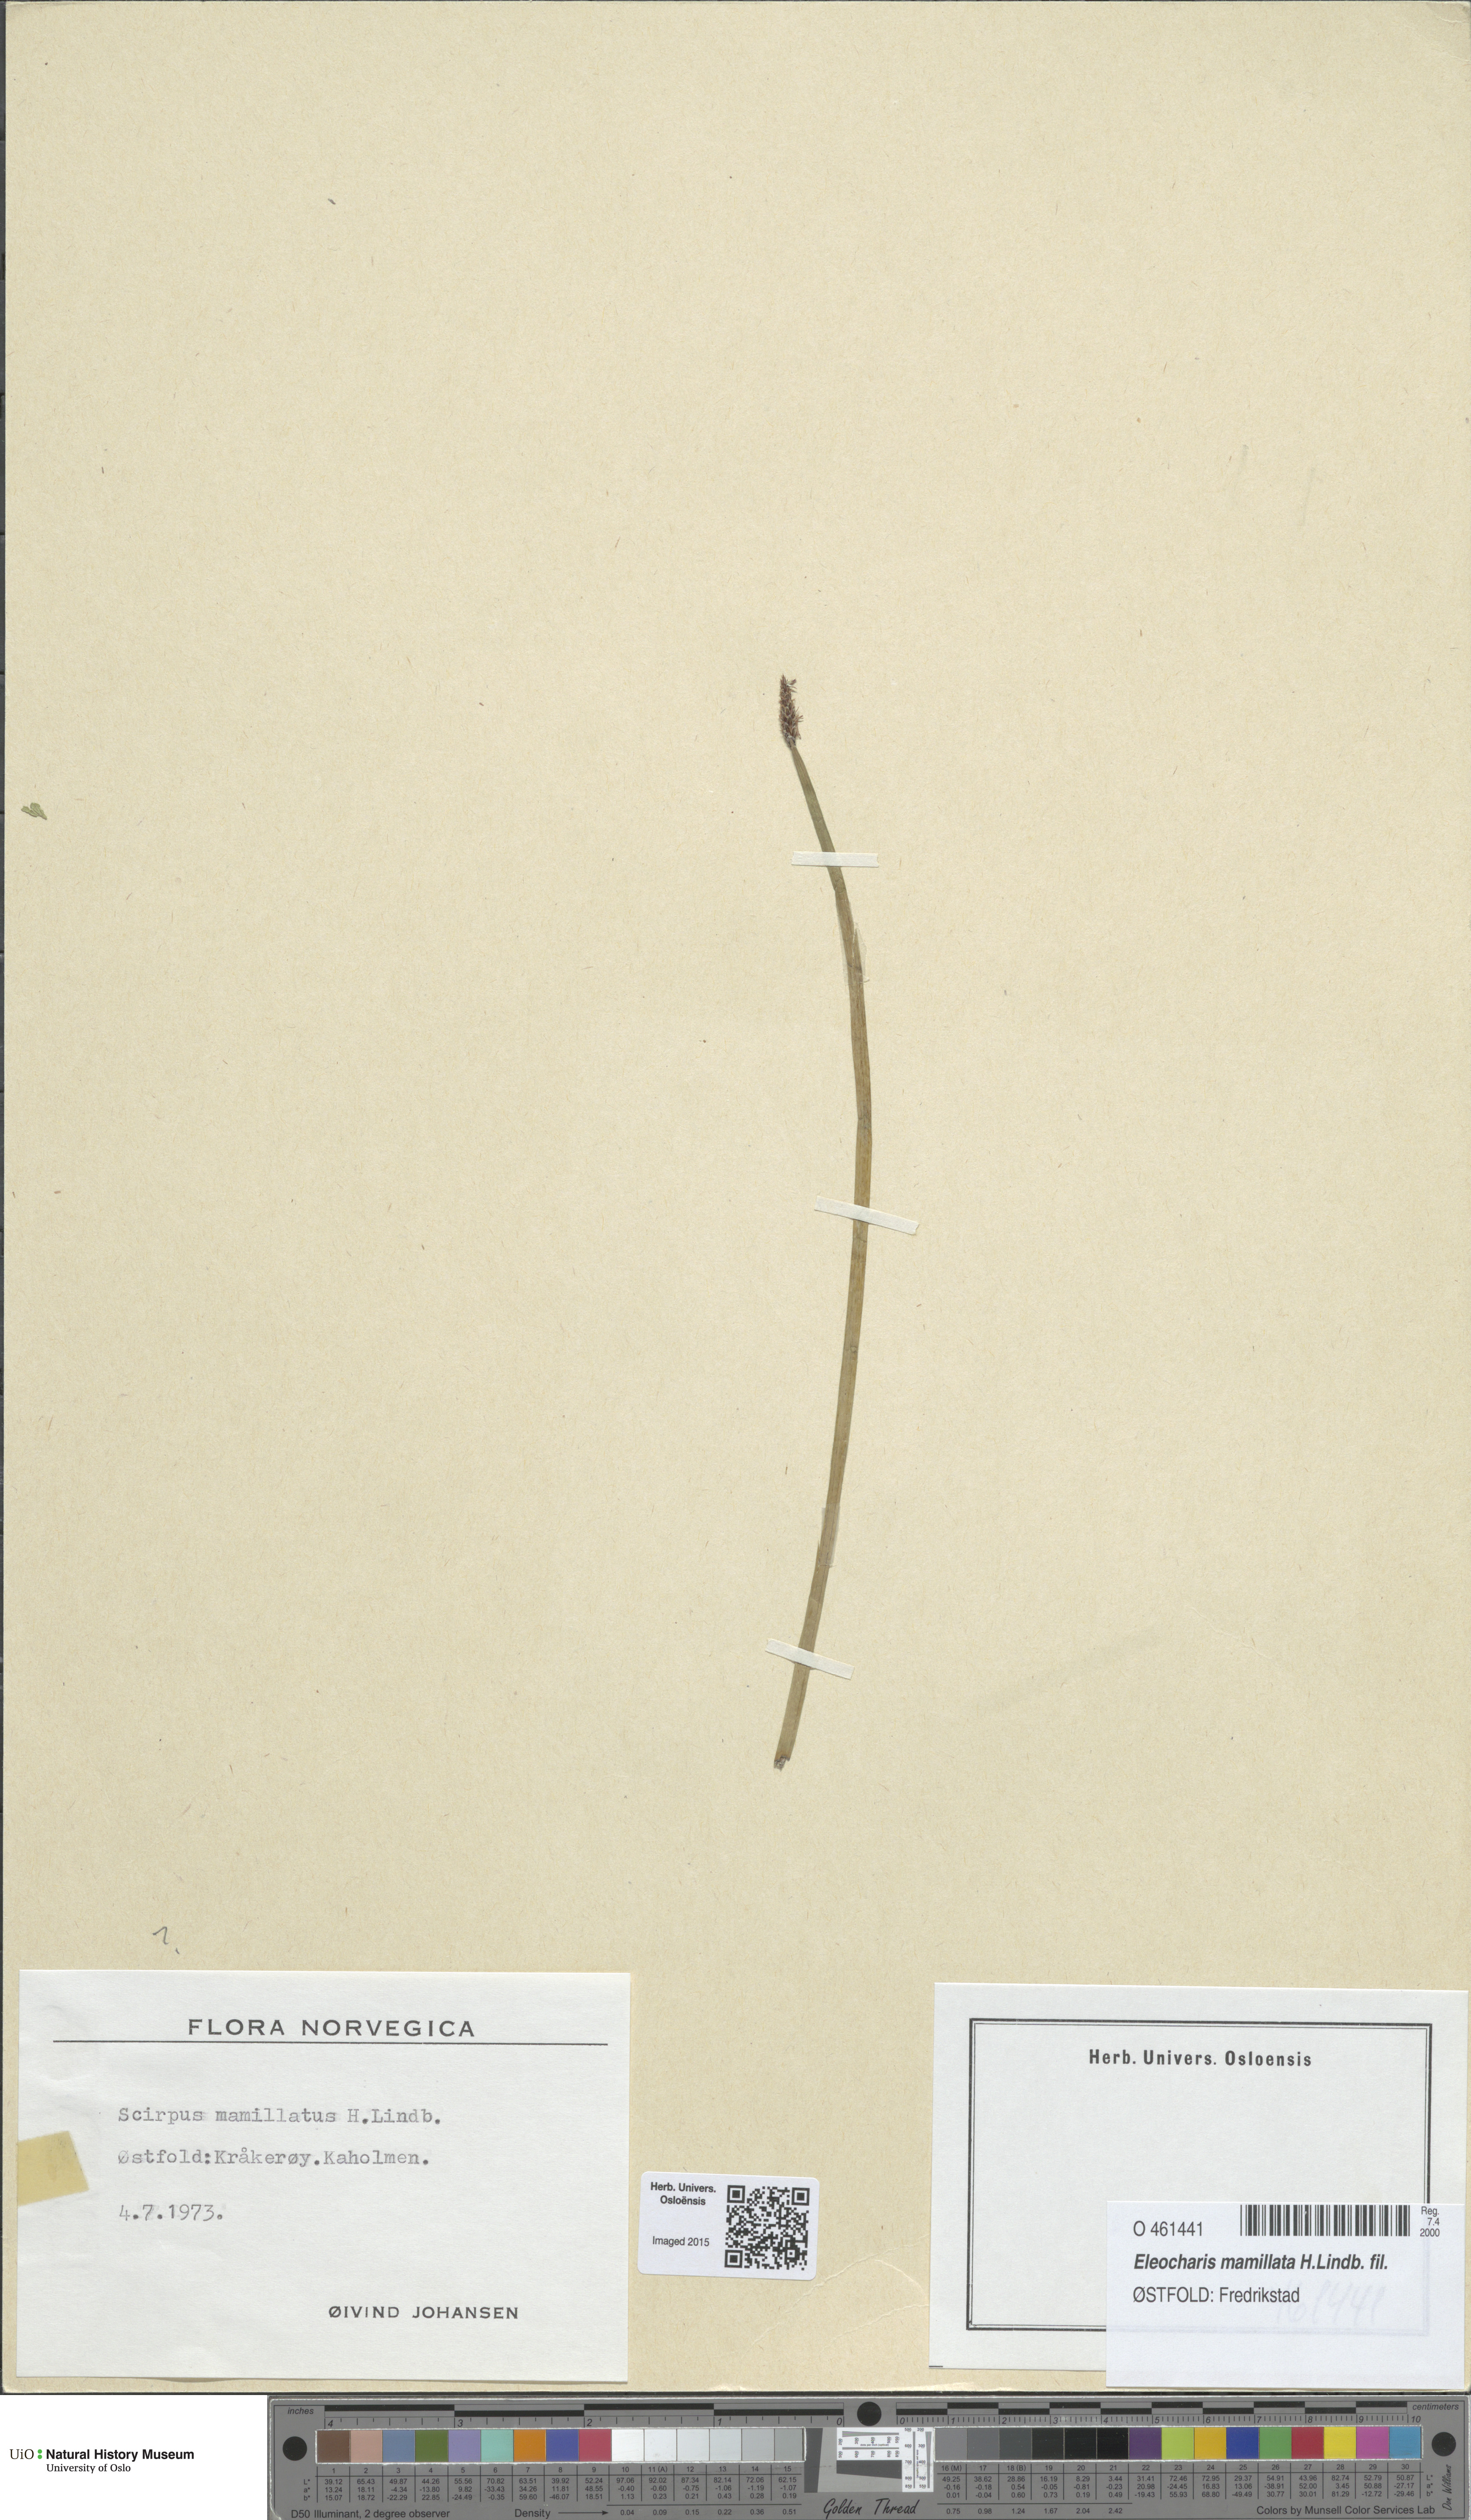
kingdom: Plantae
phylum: Tracheophyta
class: Liliopsida
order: Poales
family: Cyperaceae
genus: Eleocharis
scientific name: Eleocharis mamillata
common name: Northern spike-rush
